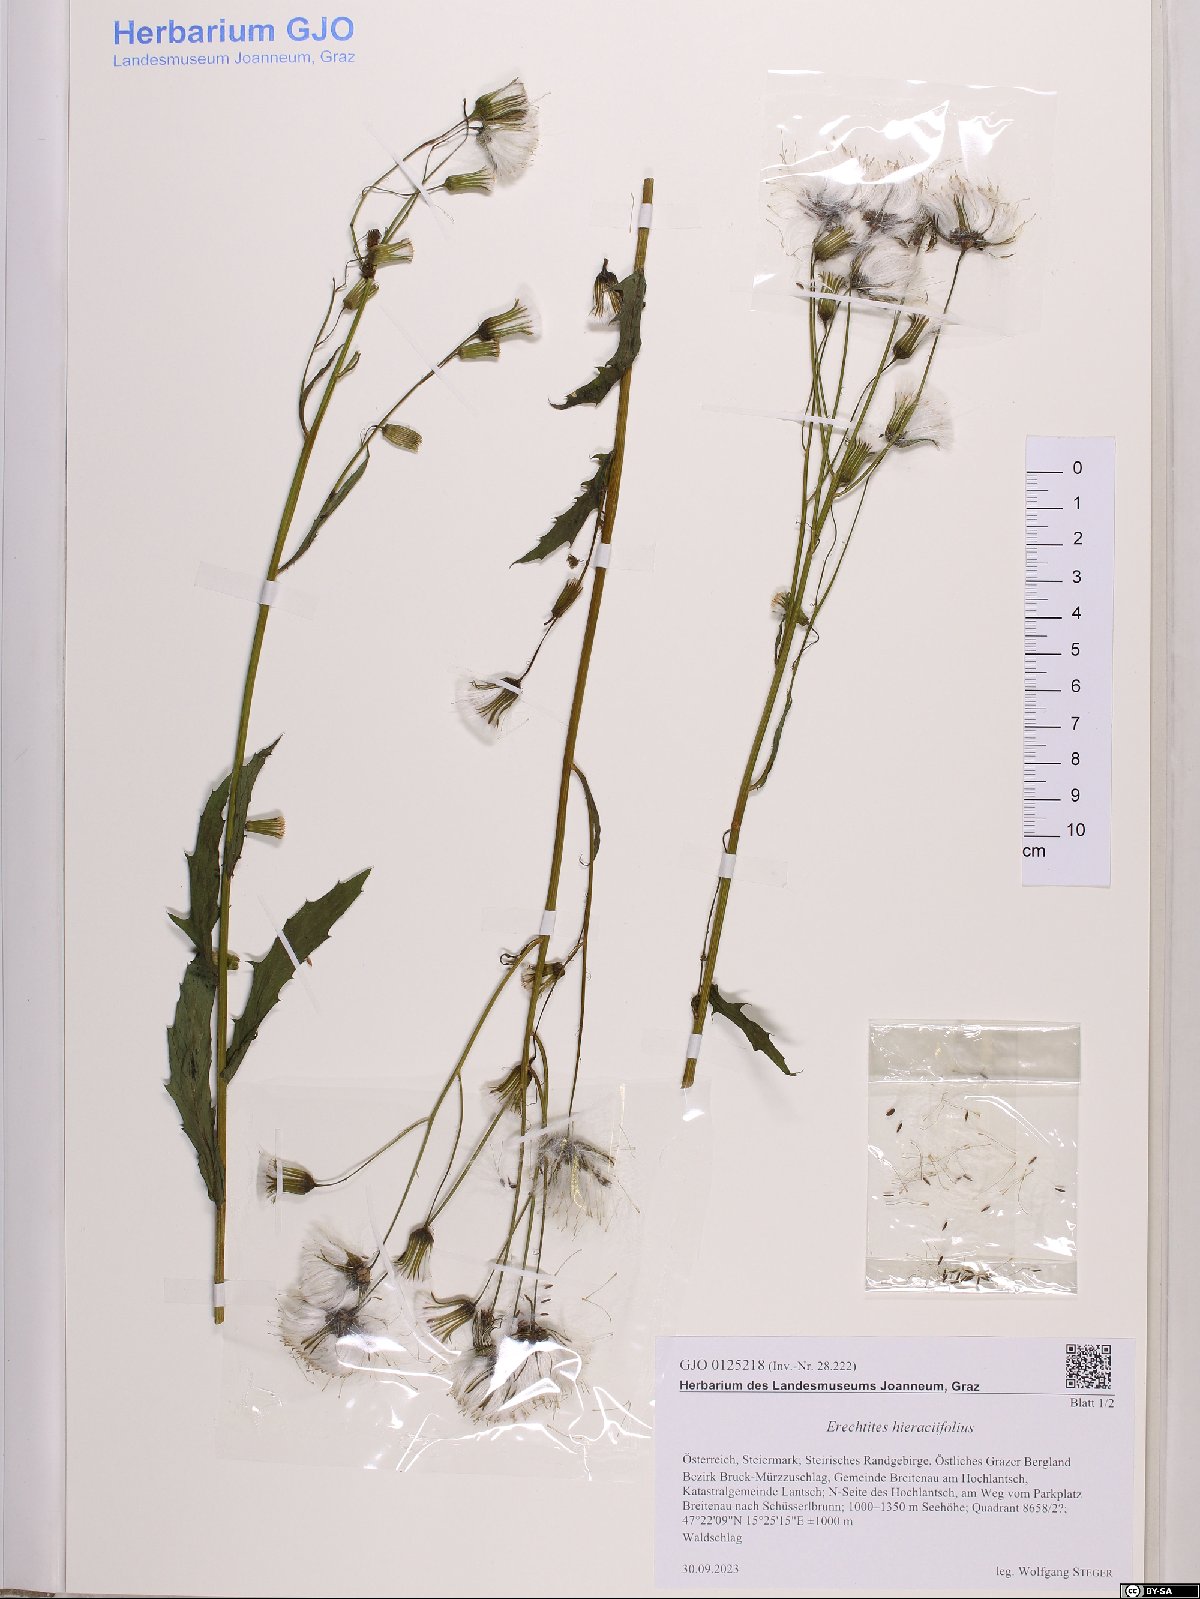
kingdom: Plantae
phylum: Tracheophyta
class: Magnoliopsida
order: Asterales
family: Asteraceae
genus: Erechtites
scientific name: Erechtites hieraciifolius
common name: American burnweed
